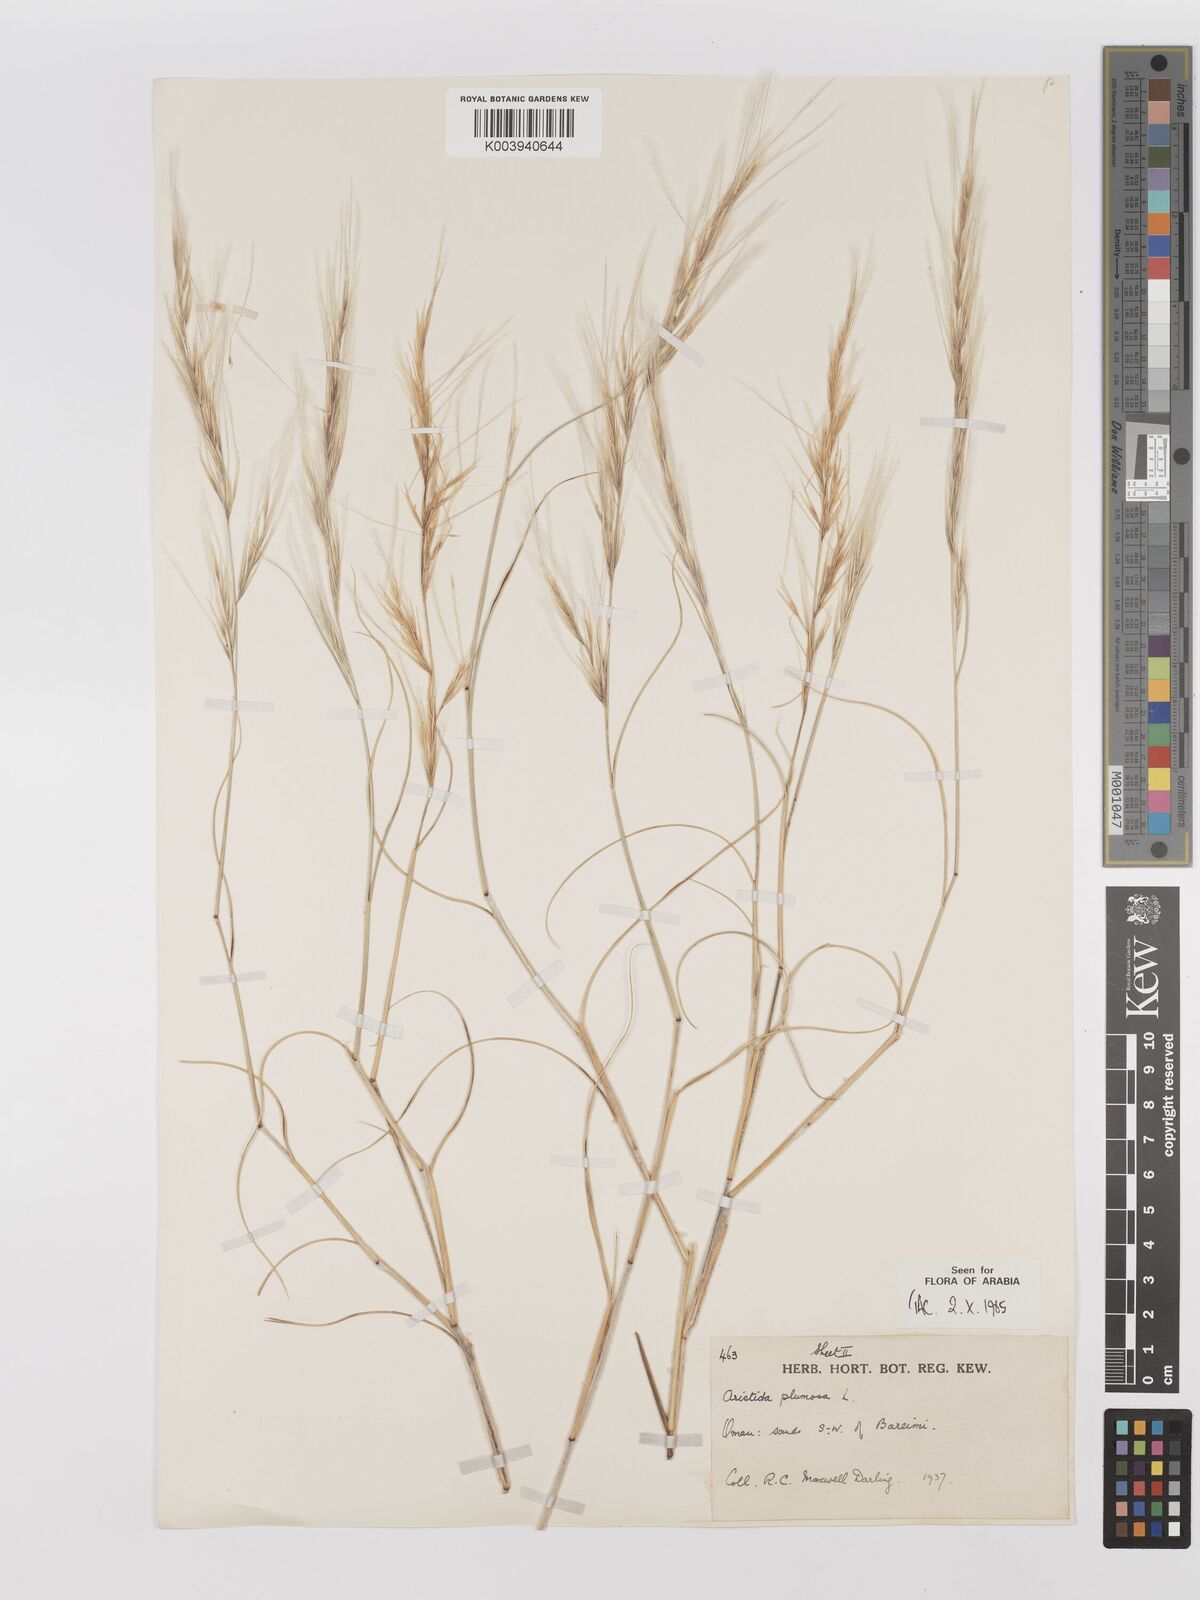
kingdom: Plantae
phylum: Tracheophyta
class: Liliopsida
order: Poales
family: Poaceae
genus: Stipagrostis
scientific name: Stipagrostis plumosa
